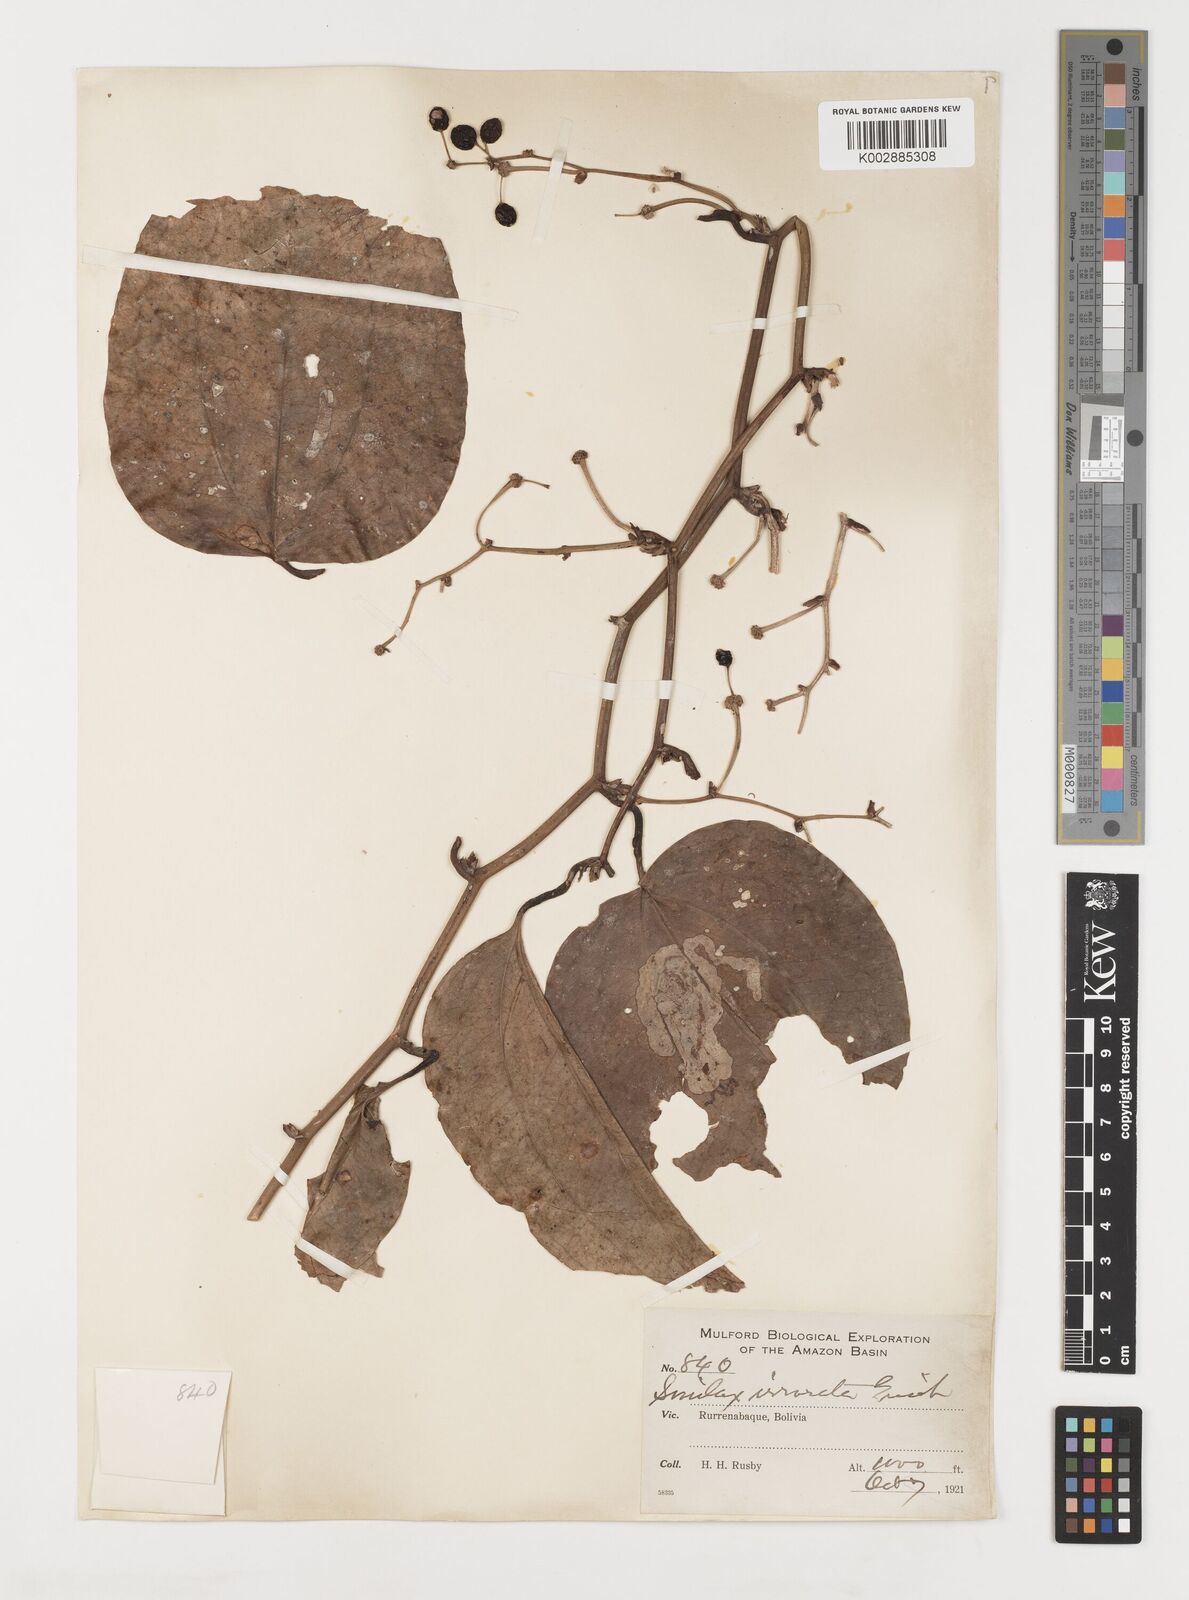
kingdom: Plantae
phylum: Tracheophyta
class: Liliopsida
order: Liliales
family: Smilacaceae
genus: Smilax
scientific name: Smilax irrorata
